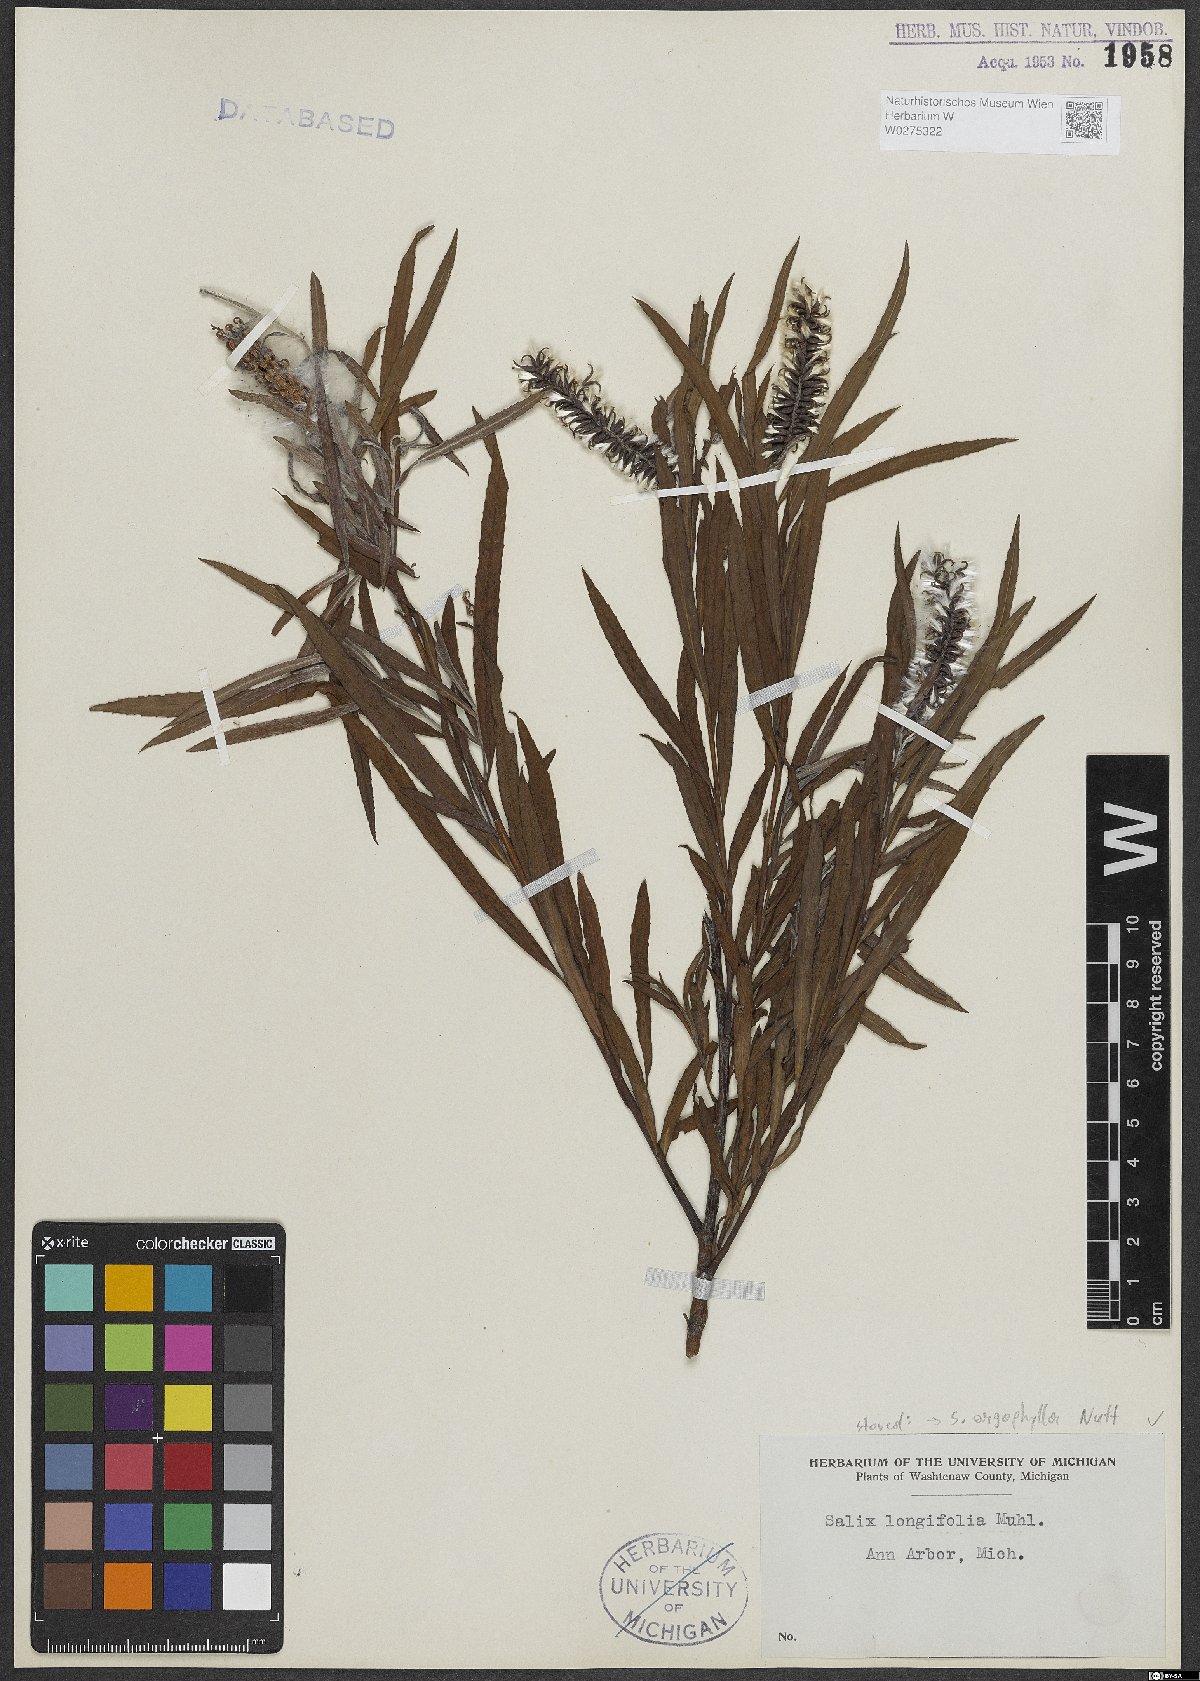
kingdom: Plantae
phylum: Tracheophyta
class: Magnoliopsida
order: Malpighiales
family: Salicaceae
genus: Salix
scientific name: Salix exigua
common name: Coyote willow
